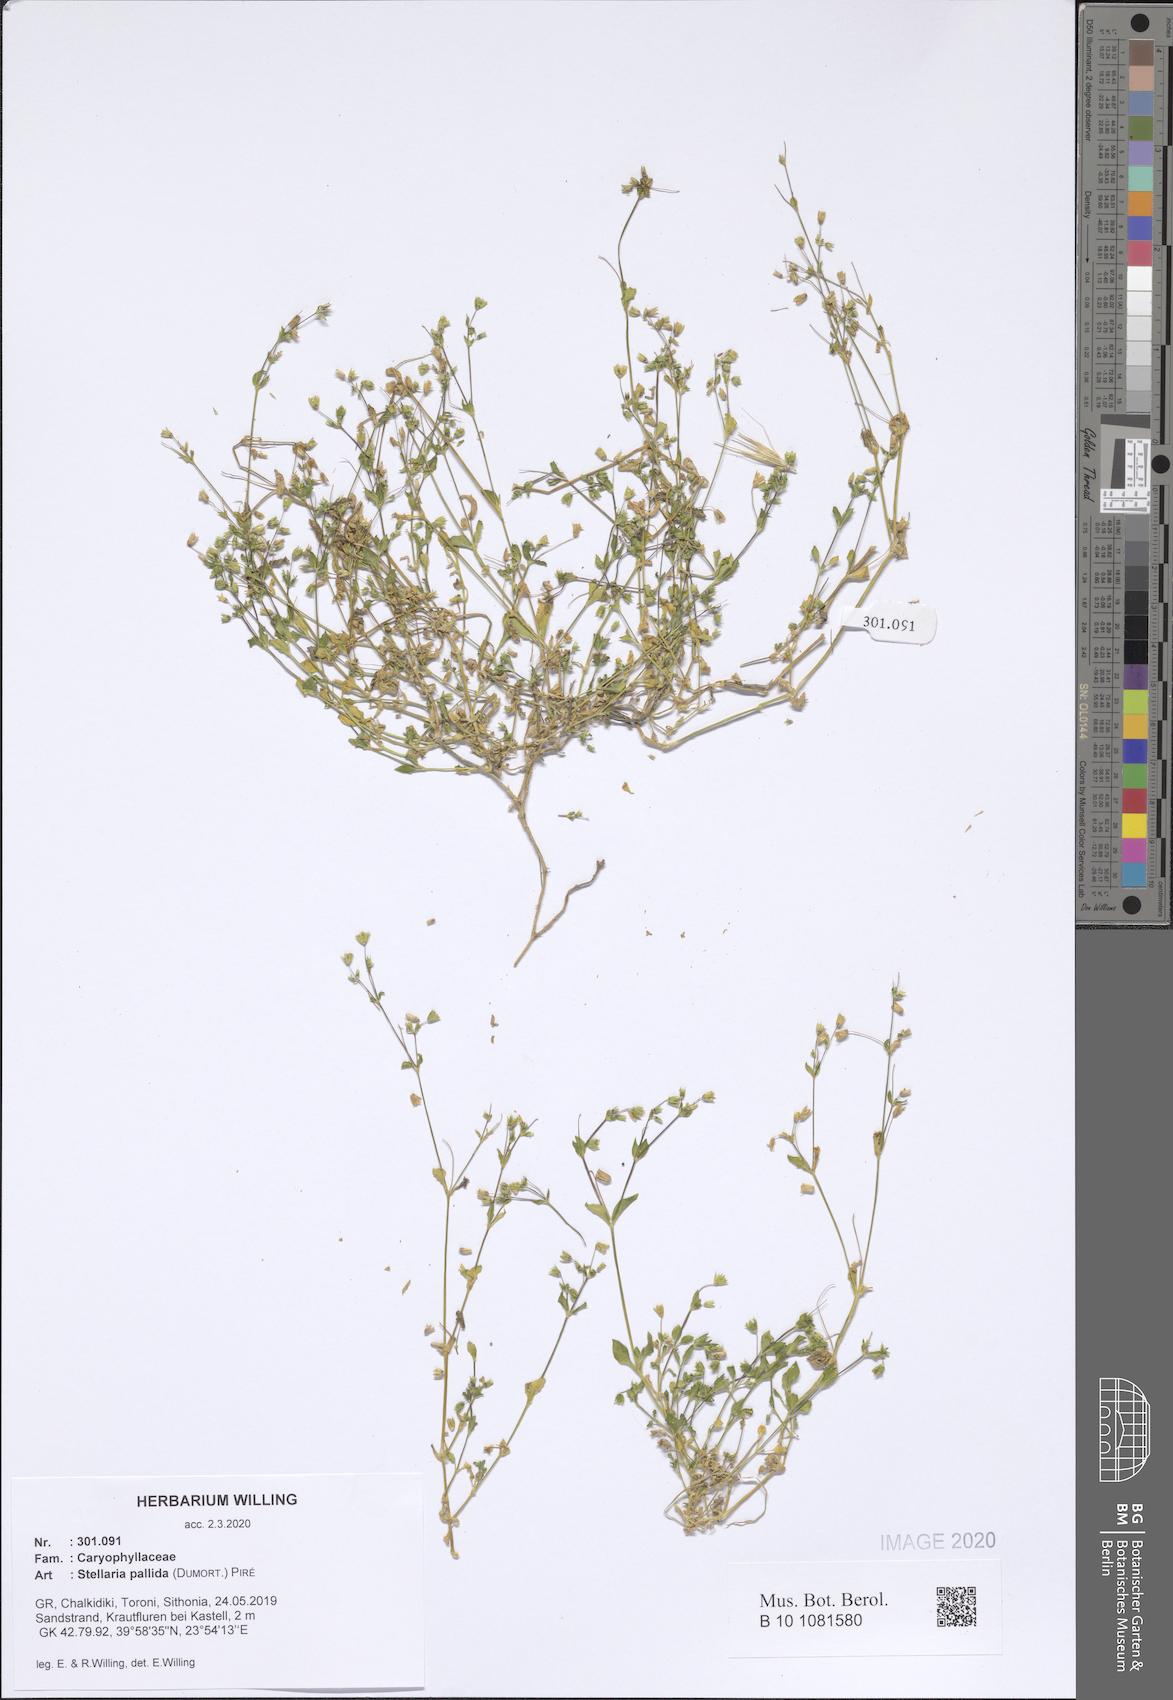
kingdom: Plantae
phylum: Tracheophyta
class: Magnoliopsida
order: Caryophyllales
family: Caryophyllaceae
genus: Stellaria
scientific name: Stellaria apetala
